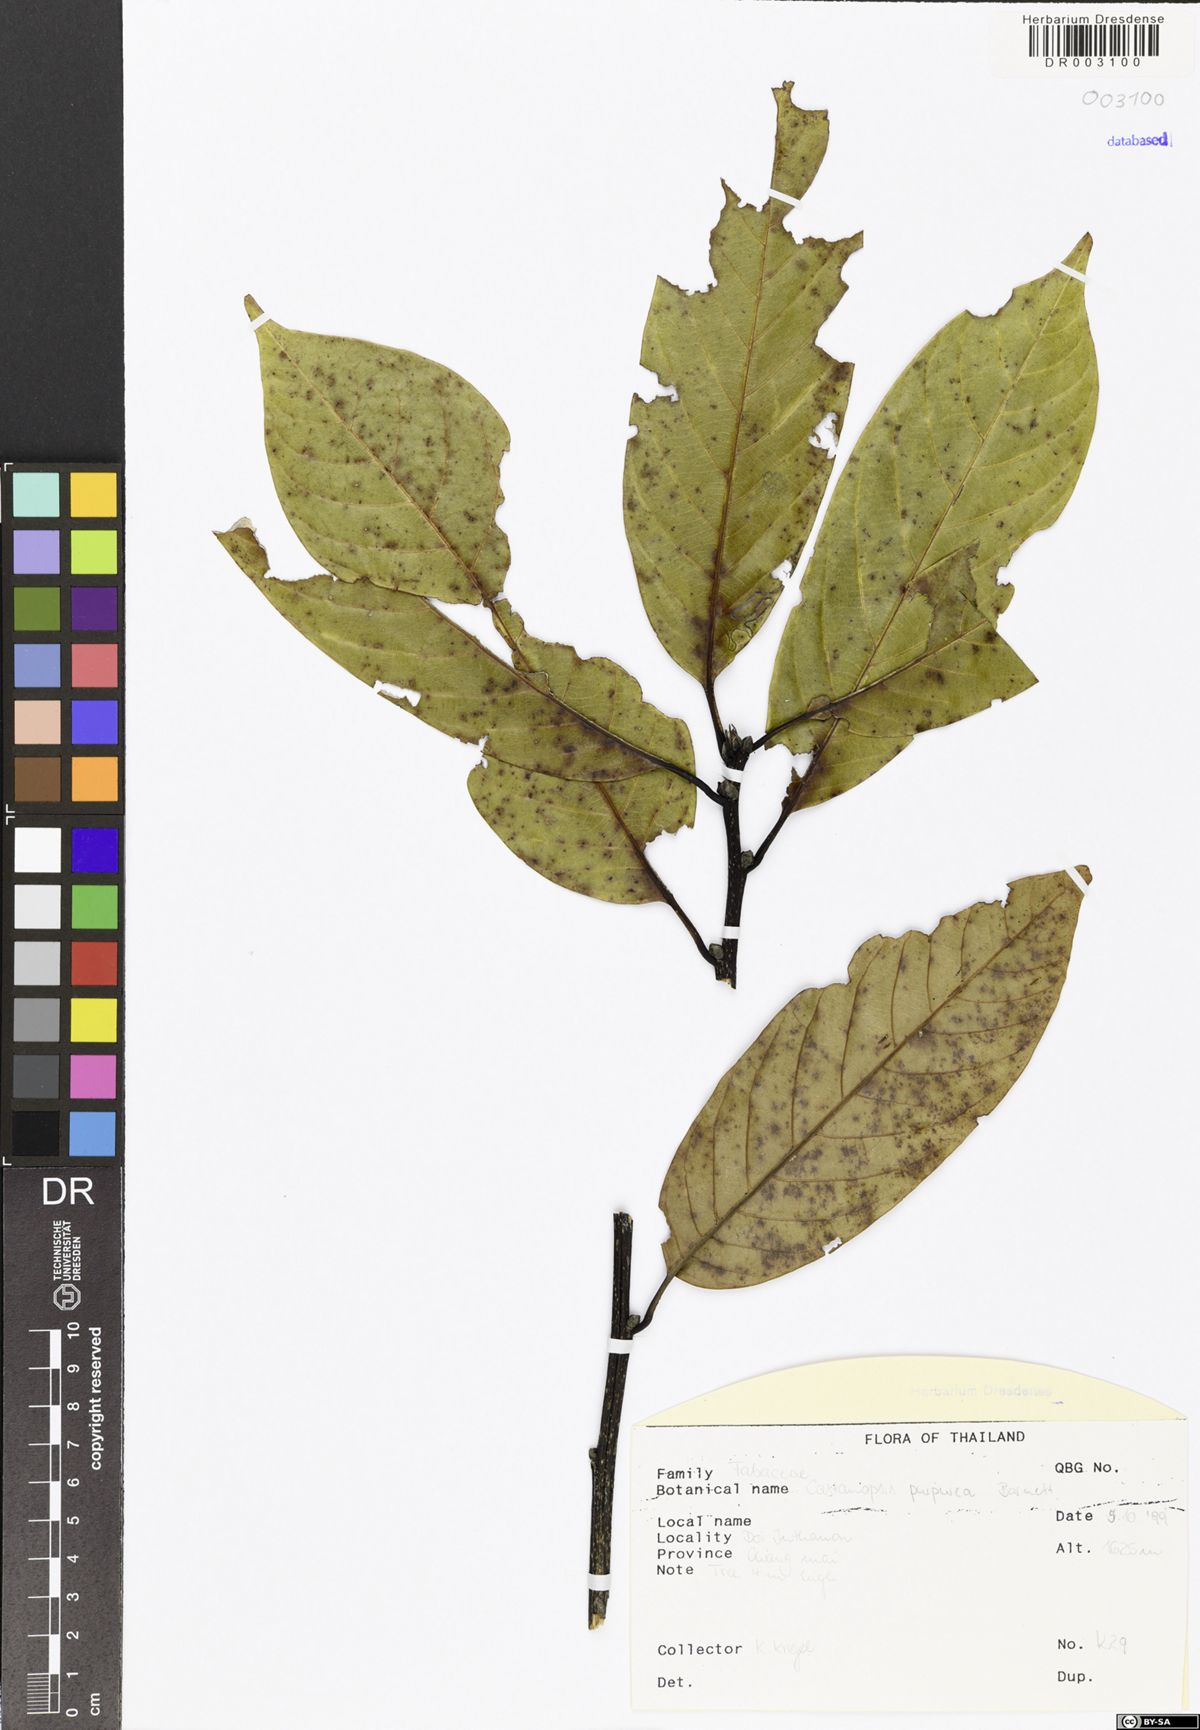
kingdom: Plantae
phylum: Tracheophyta
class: Magnoliopsida
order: Fagales
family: Fagaceae
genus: Castanopsis
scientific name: Castanopsis purpurea
